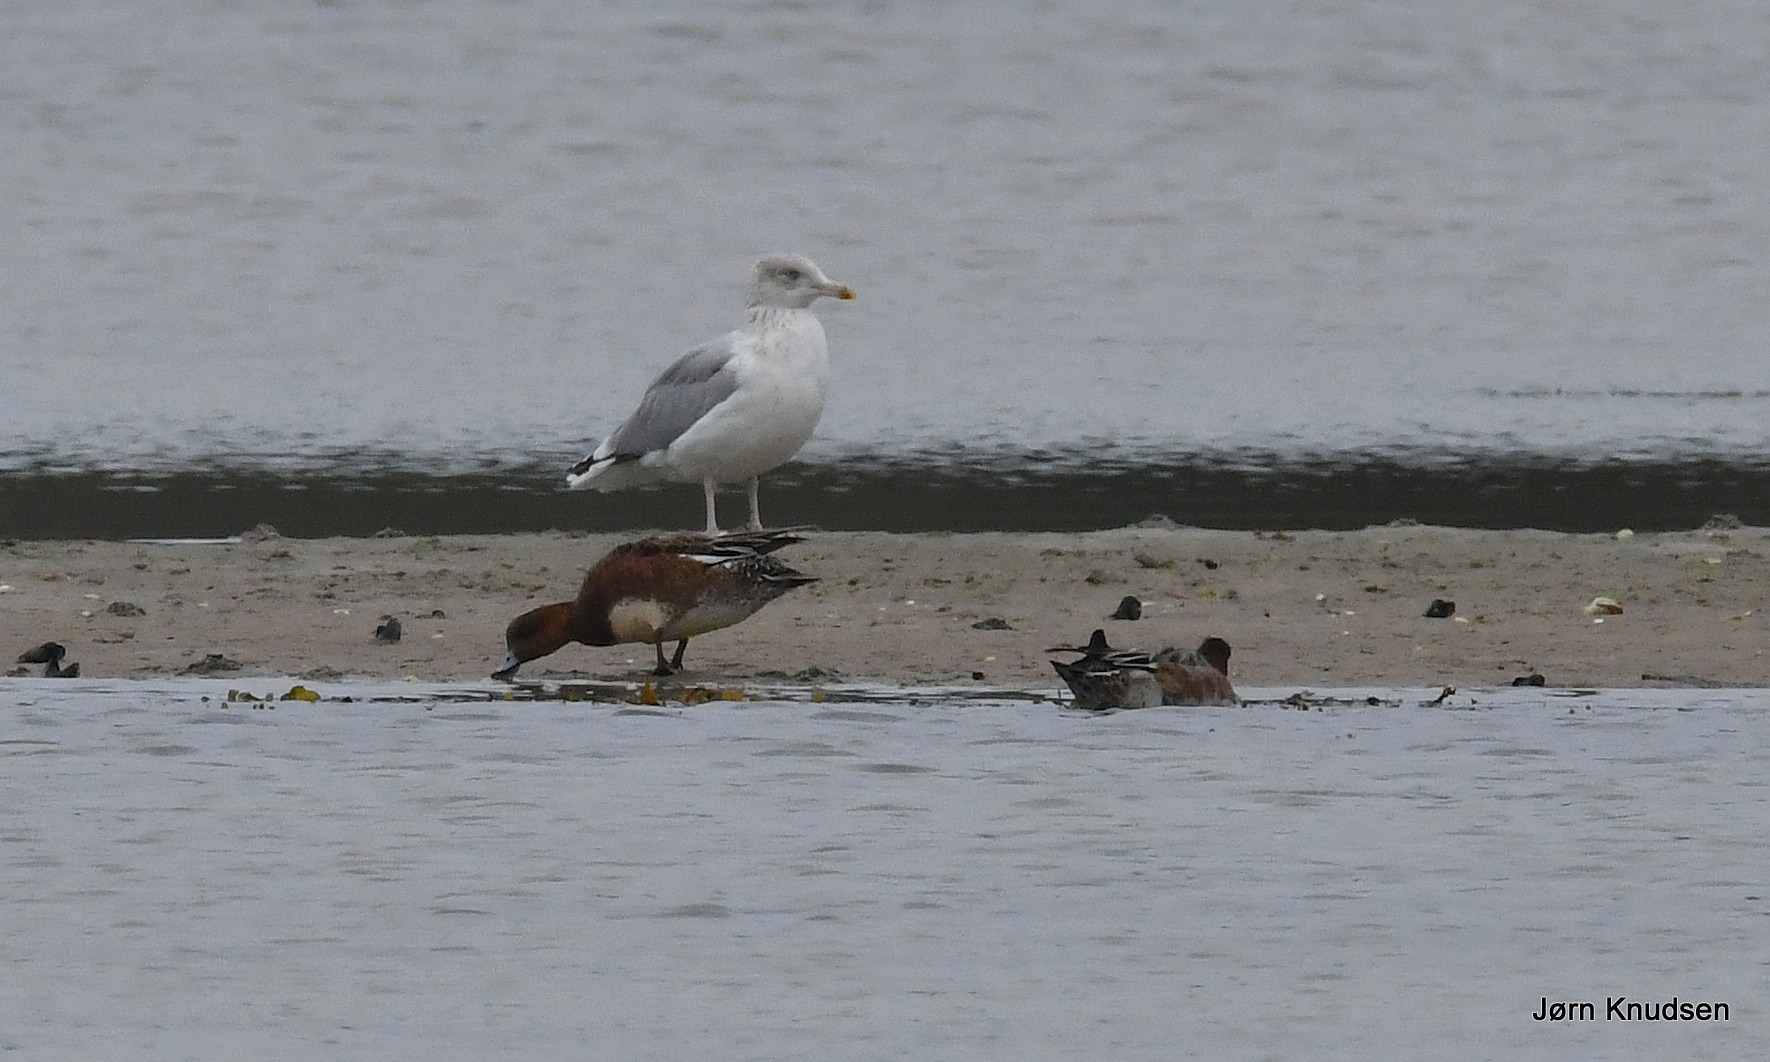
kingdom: Animalia
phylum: Chordata
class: Aves
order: Charadriiformes
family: Laridae
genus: Larus
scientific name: Larus argentatus
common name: Sølvmåge
